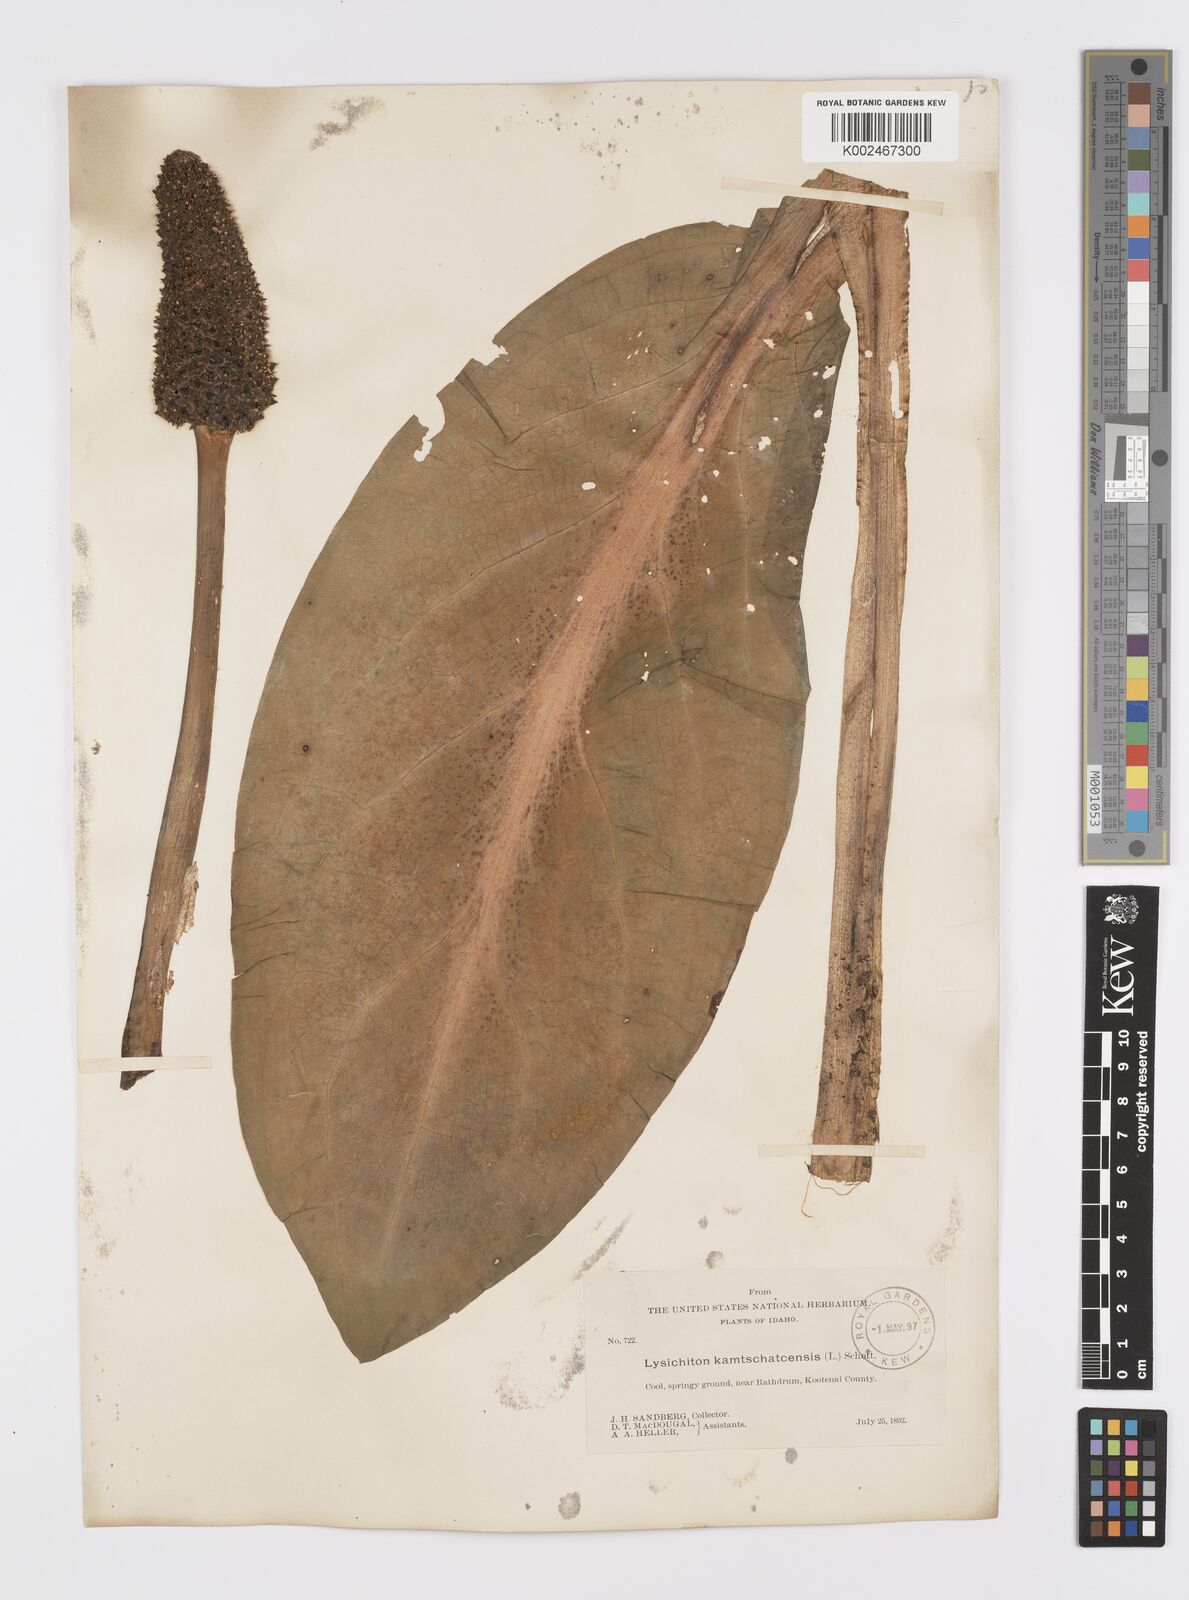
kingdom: Plantae
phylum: Tracheophyta
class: Liliopsida
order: Alismatales
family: Araceae
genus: Lysichiton
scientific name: Lysichiton americanus
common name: American skunk cabbage
